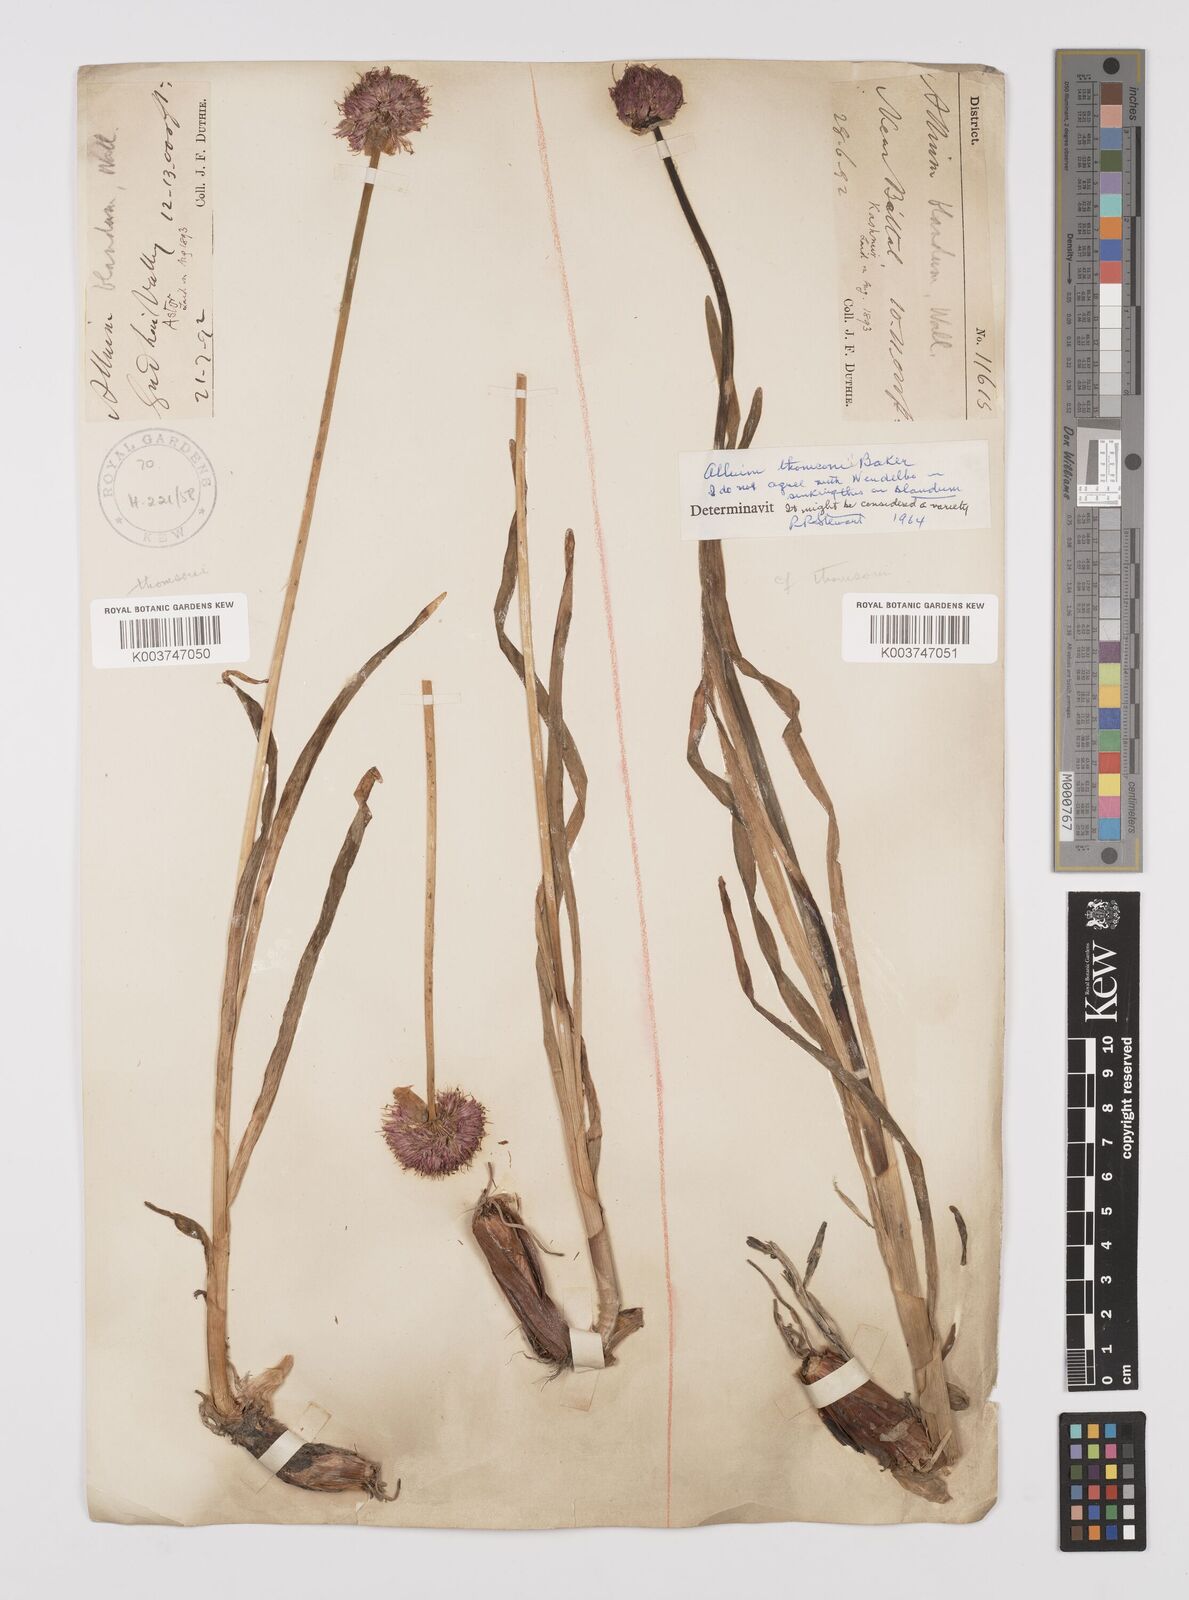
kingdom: Plantae
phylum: Tracheophyta
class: Liliopsida
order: Asparagales
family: Amaryllidaceae
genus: Allium
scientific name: Allium blandum
